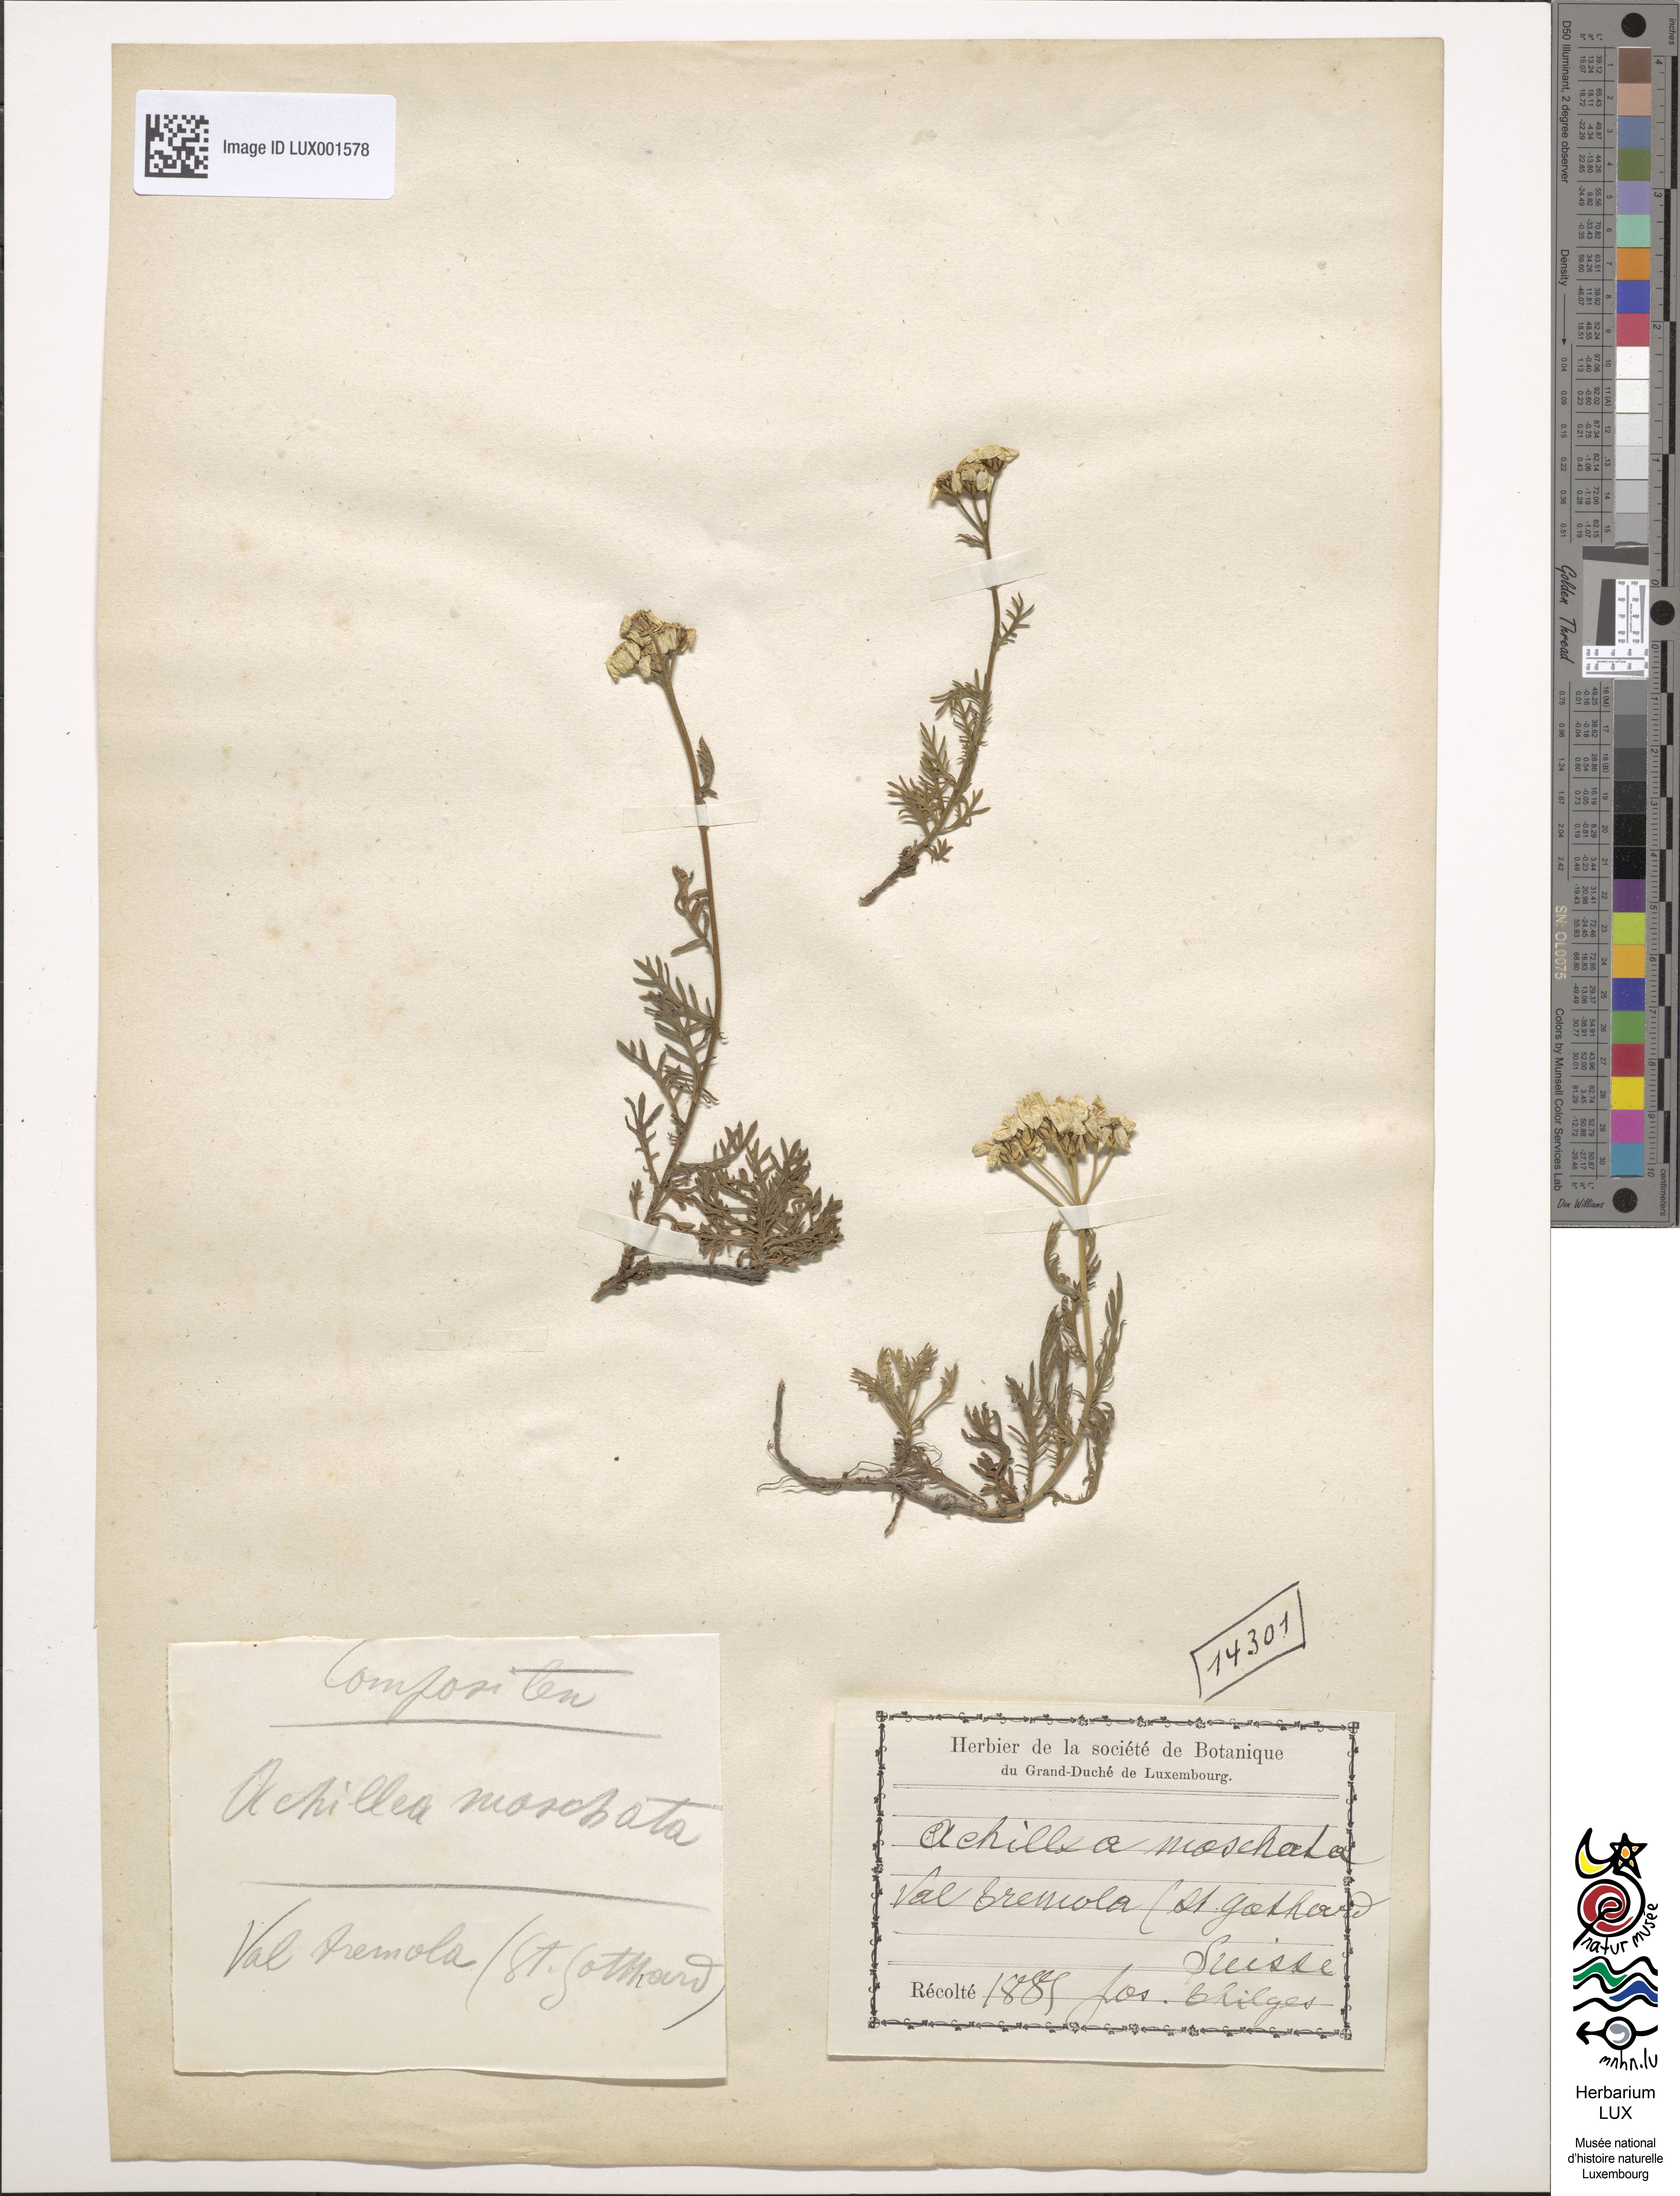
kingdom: Plantae
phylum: Tracheophyta
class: Magnoliopsida
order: Asterales
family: Asteraceae
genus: Achillea
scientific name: Achillea erba-rotta
